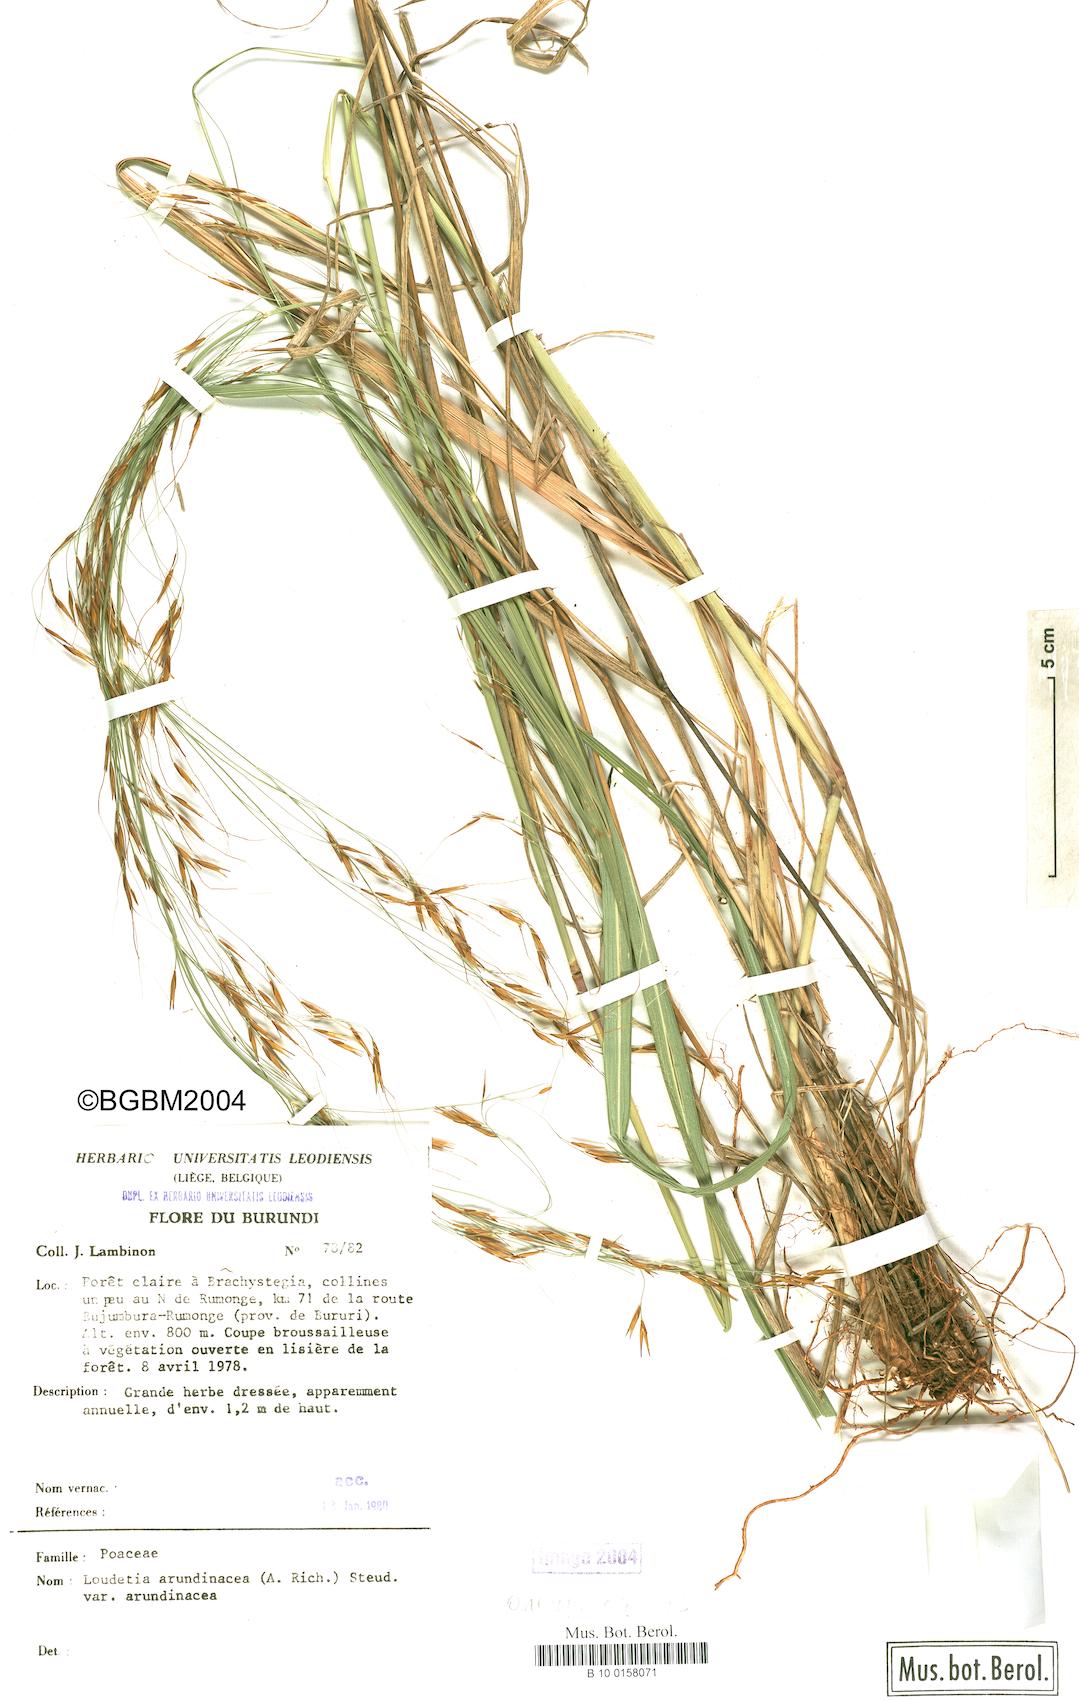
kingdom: Plantae
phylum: Tracheophyta
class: Liliopsida
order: Poales
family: Poaceae
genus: Loudetia
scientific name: Loudetia arundinacea
